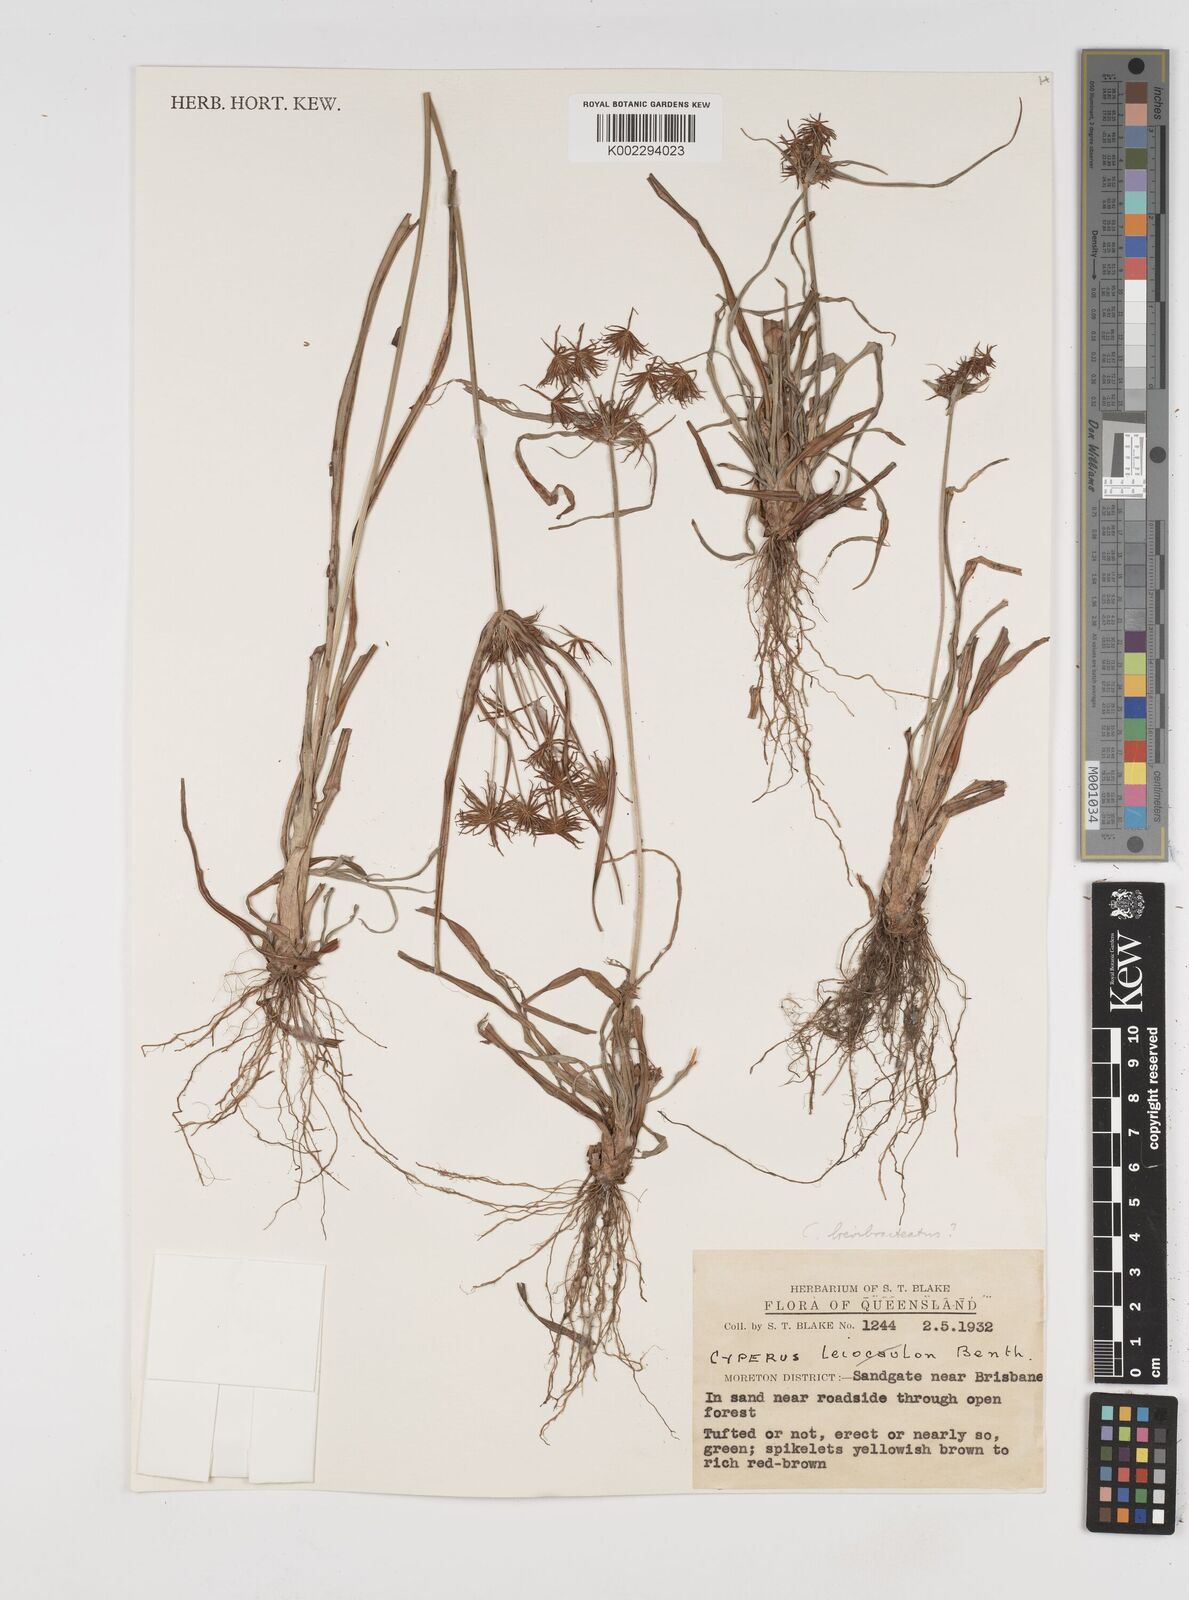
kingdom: Plantae
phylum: Tracheophyta
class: Liliopsida
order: Poales
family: Cyperaceae
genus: Cyperus
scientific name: Cyperus dietrichiae
